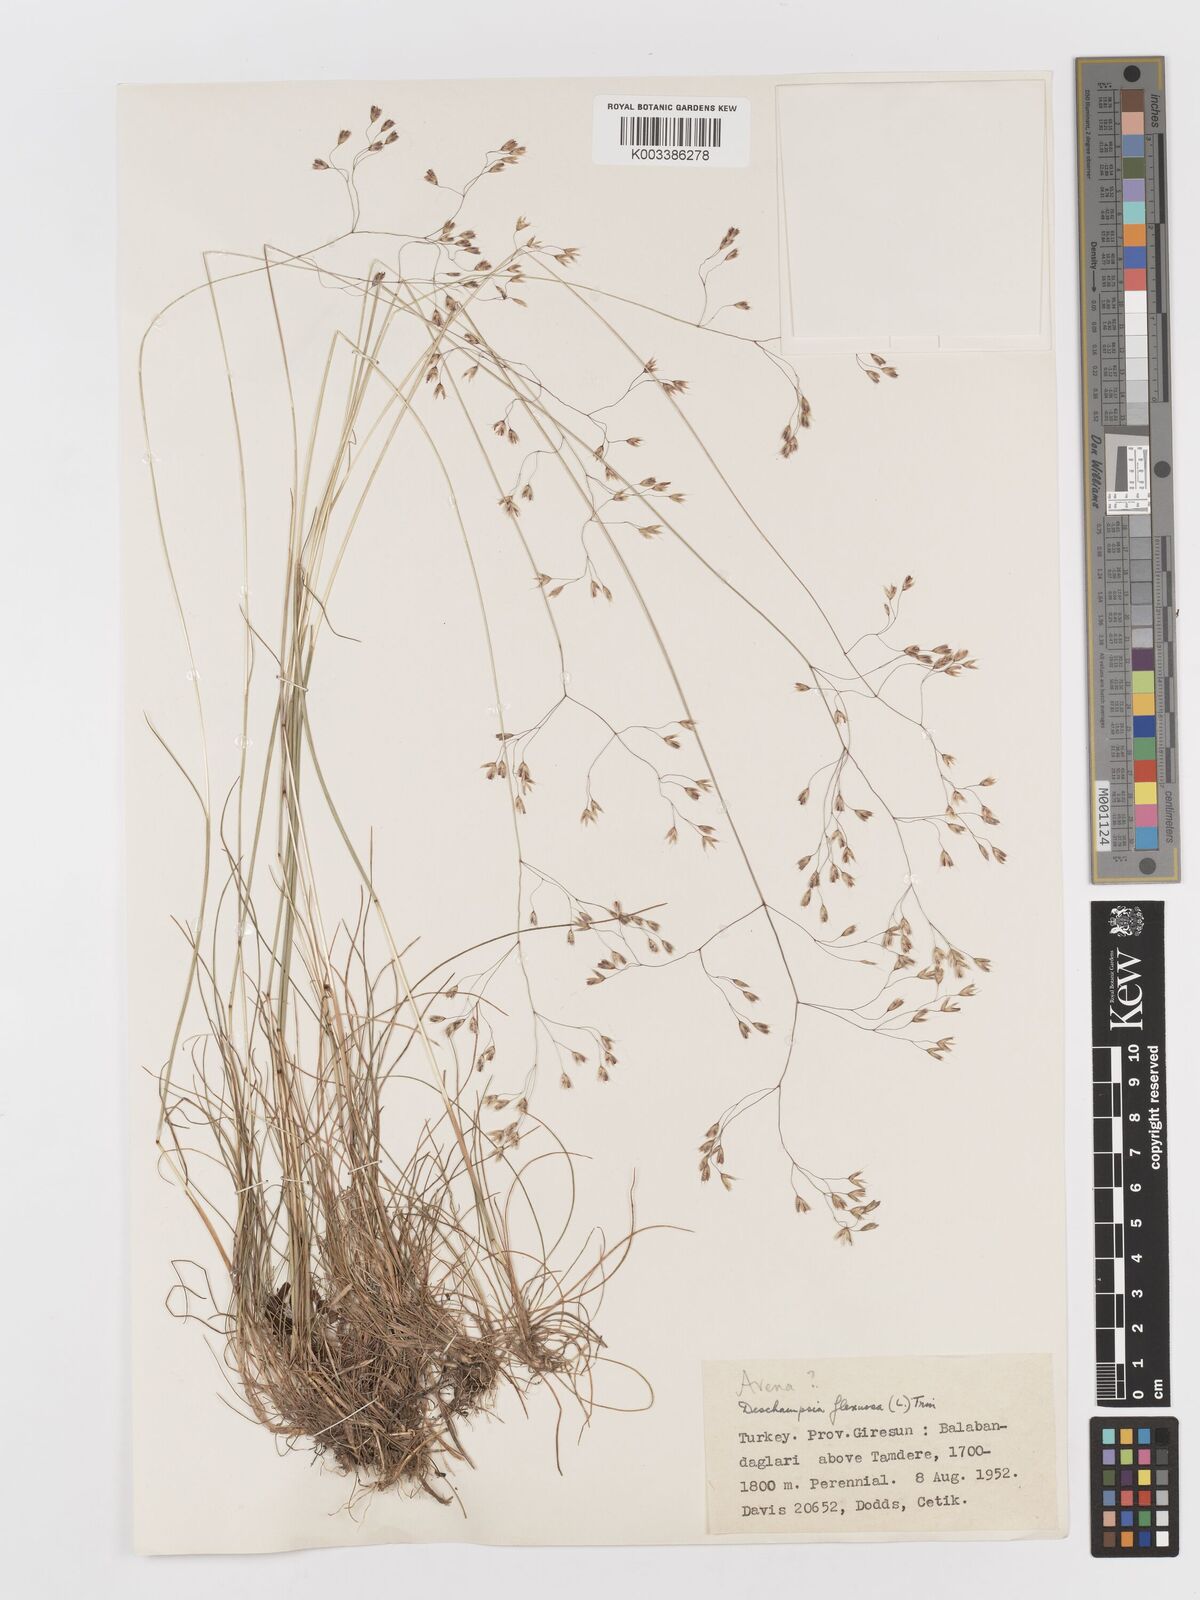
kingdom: Plantae
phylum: Tracheophyta
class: Liliopsida
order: Poales
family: Poaceae
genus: Avenella
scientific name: Avenella flexuosa
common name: Wavy hairgrass
